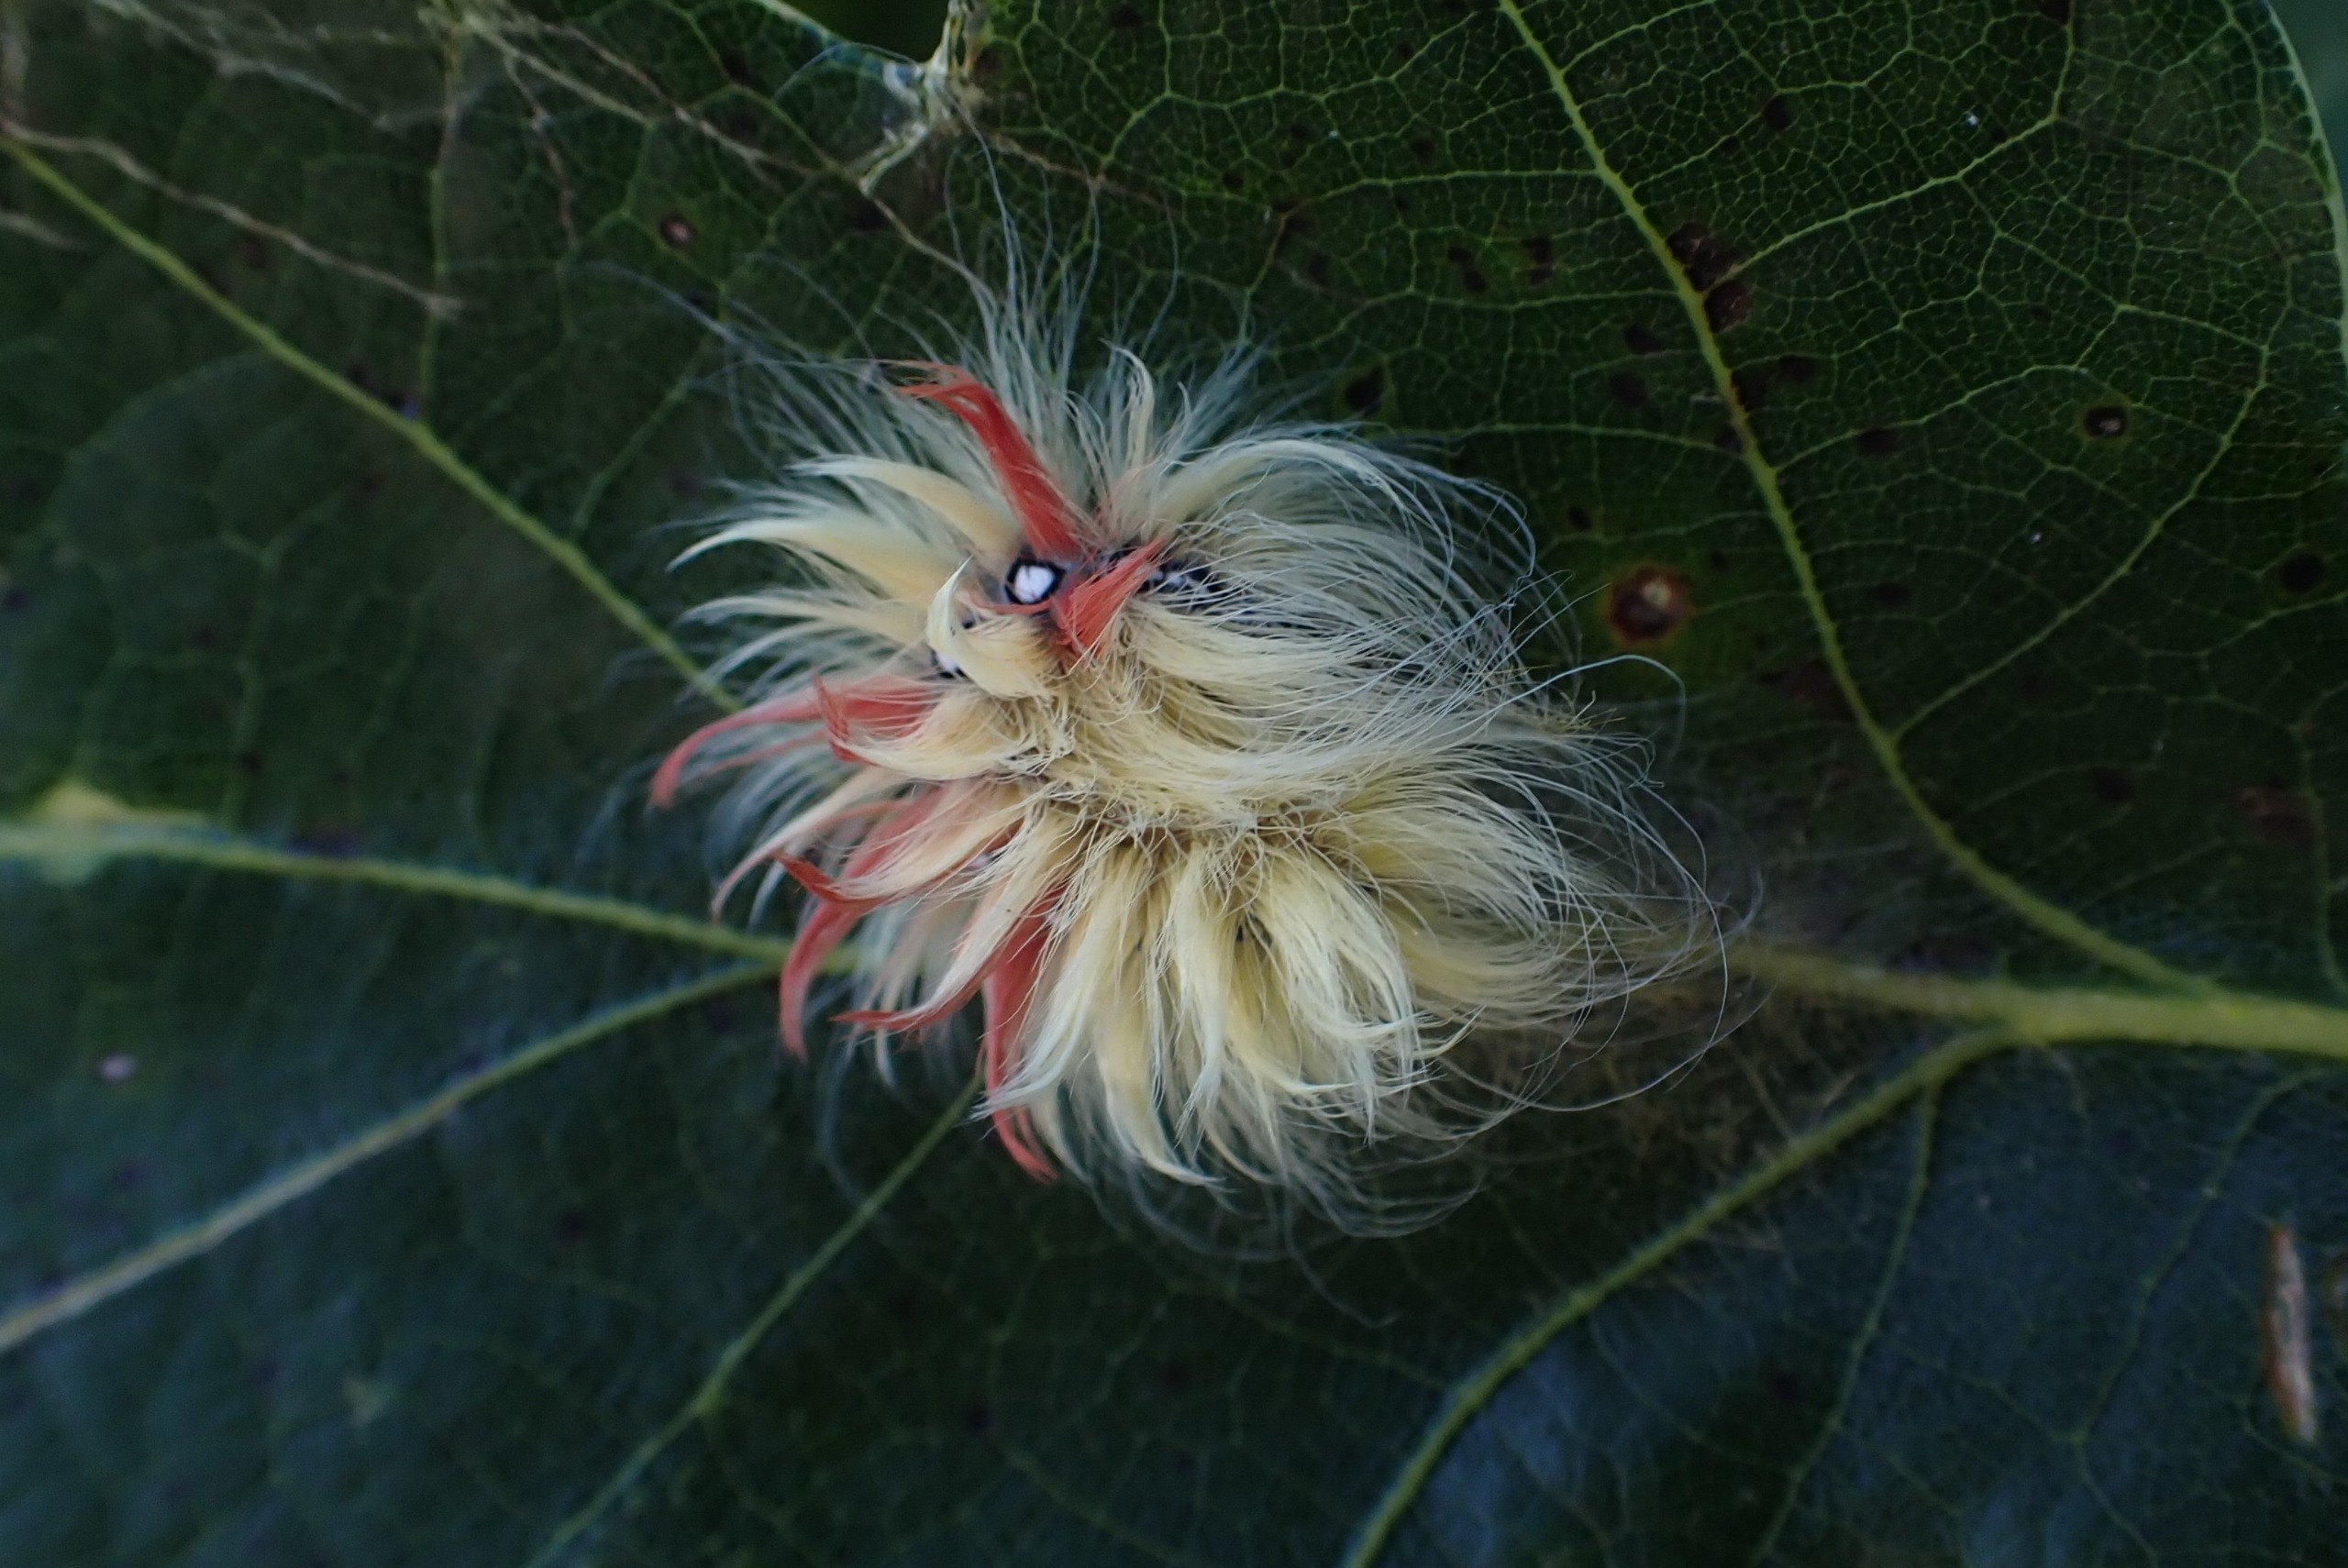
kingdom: Animalia
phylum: Arthropoda
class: Insecta
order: Lepidoptera
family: Noctuidae
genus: Acronicta
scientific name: Acronicta aceris
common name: Ahornugle
